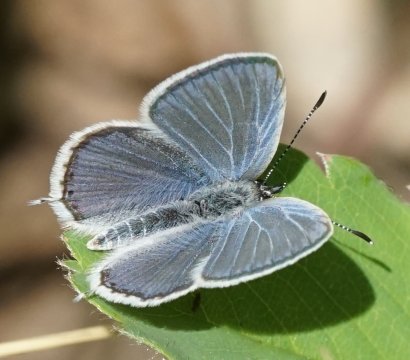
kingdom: Animalia
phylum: Arthropoda
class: Insecta
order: Lepidoptera
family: Lycaenidae
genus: Elkalyce
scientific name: Elkalyce amyntula
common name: Western Tailed-Blue
